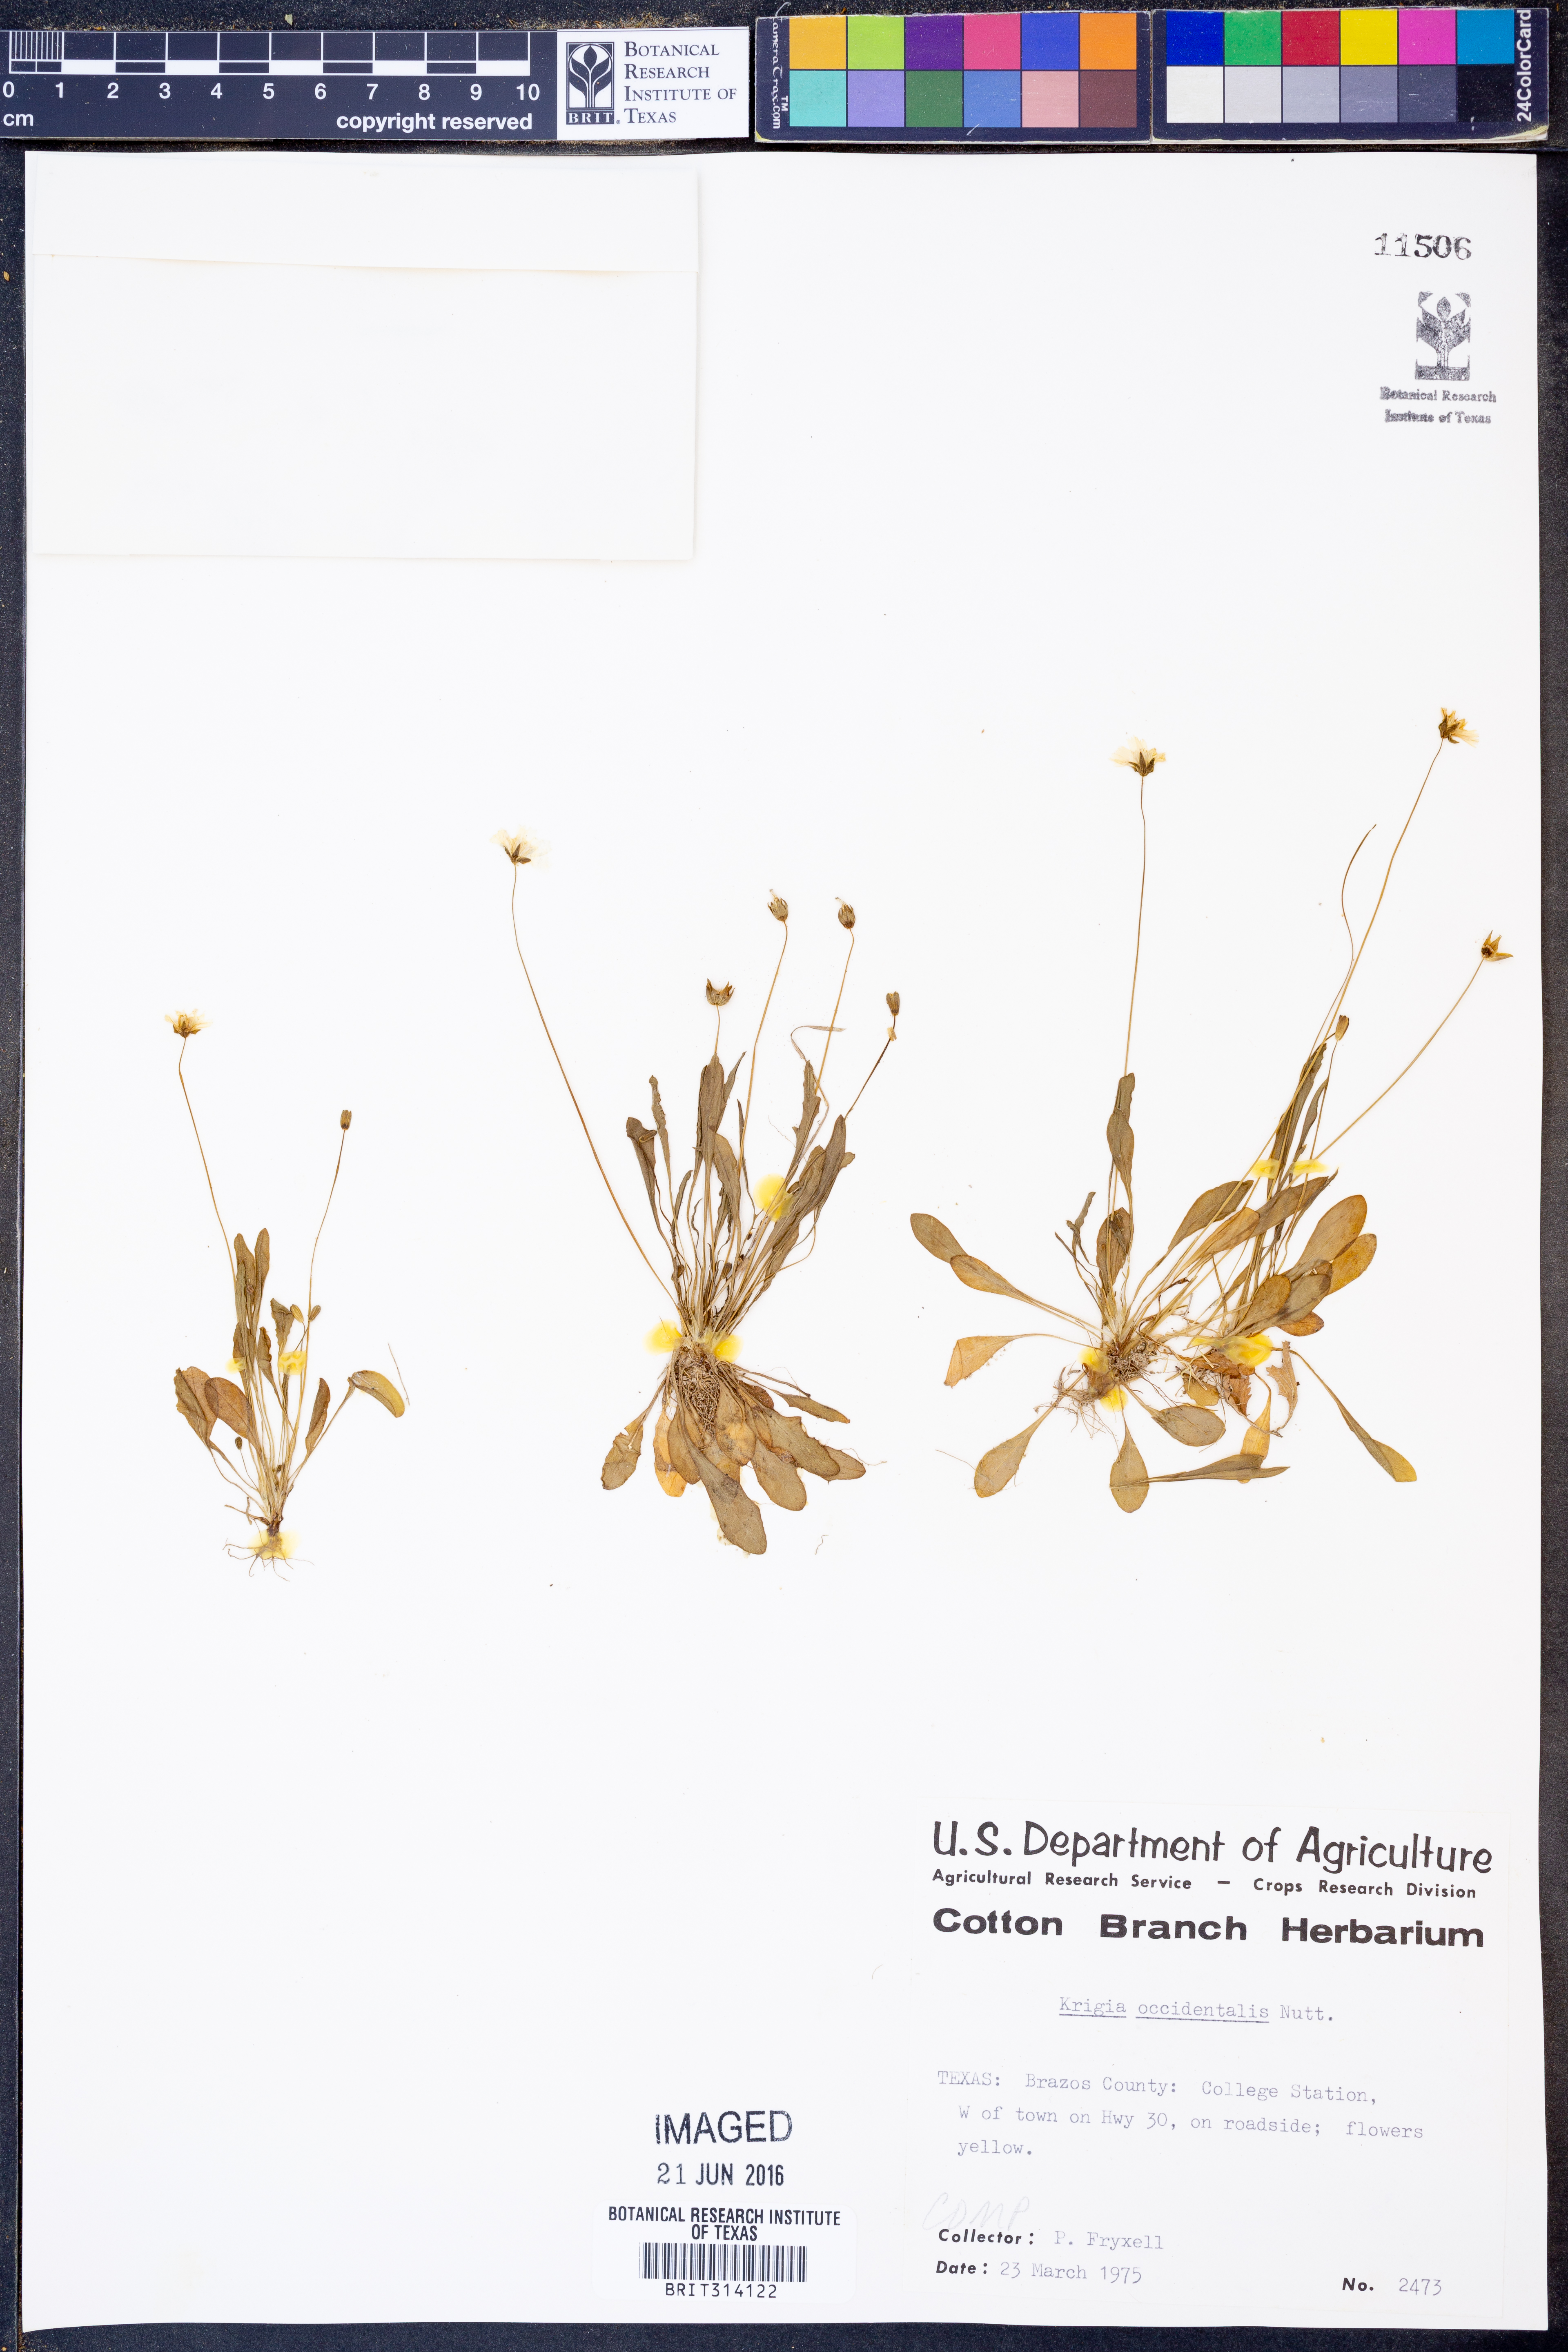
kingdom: Plantae
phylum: Tracheophyta
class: Magnoliopsida
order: Asterales
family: Asteraceae
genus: Krigia
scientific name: Krigia occidentalis
